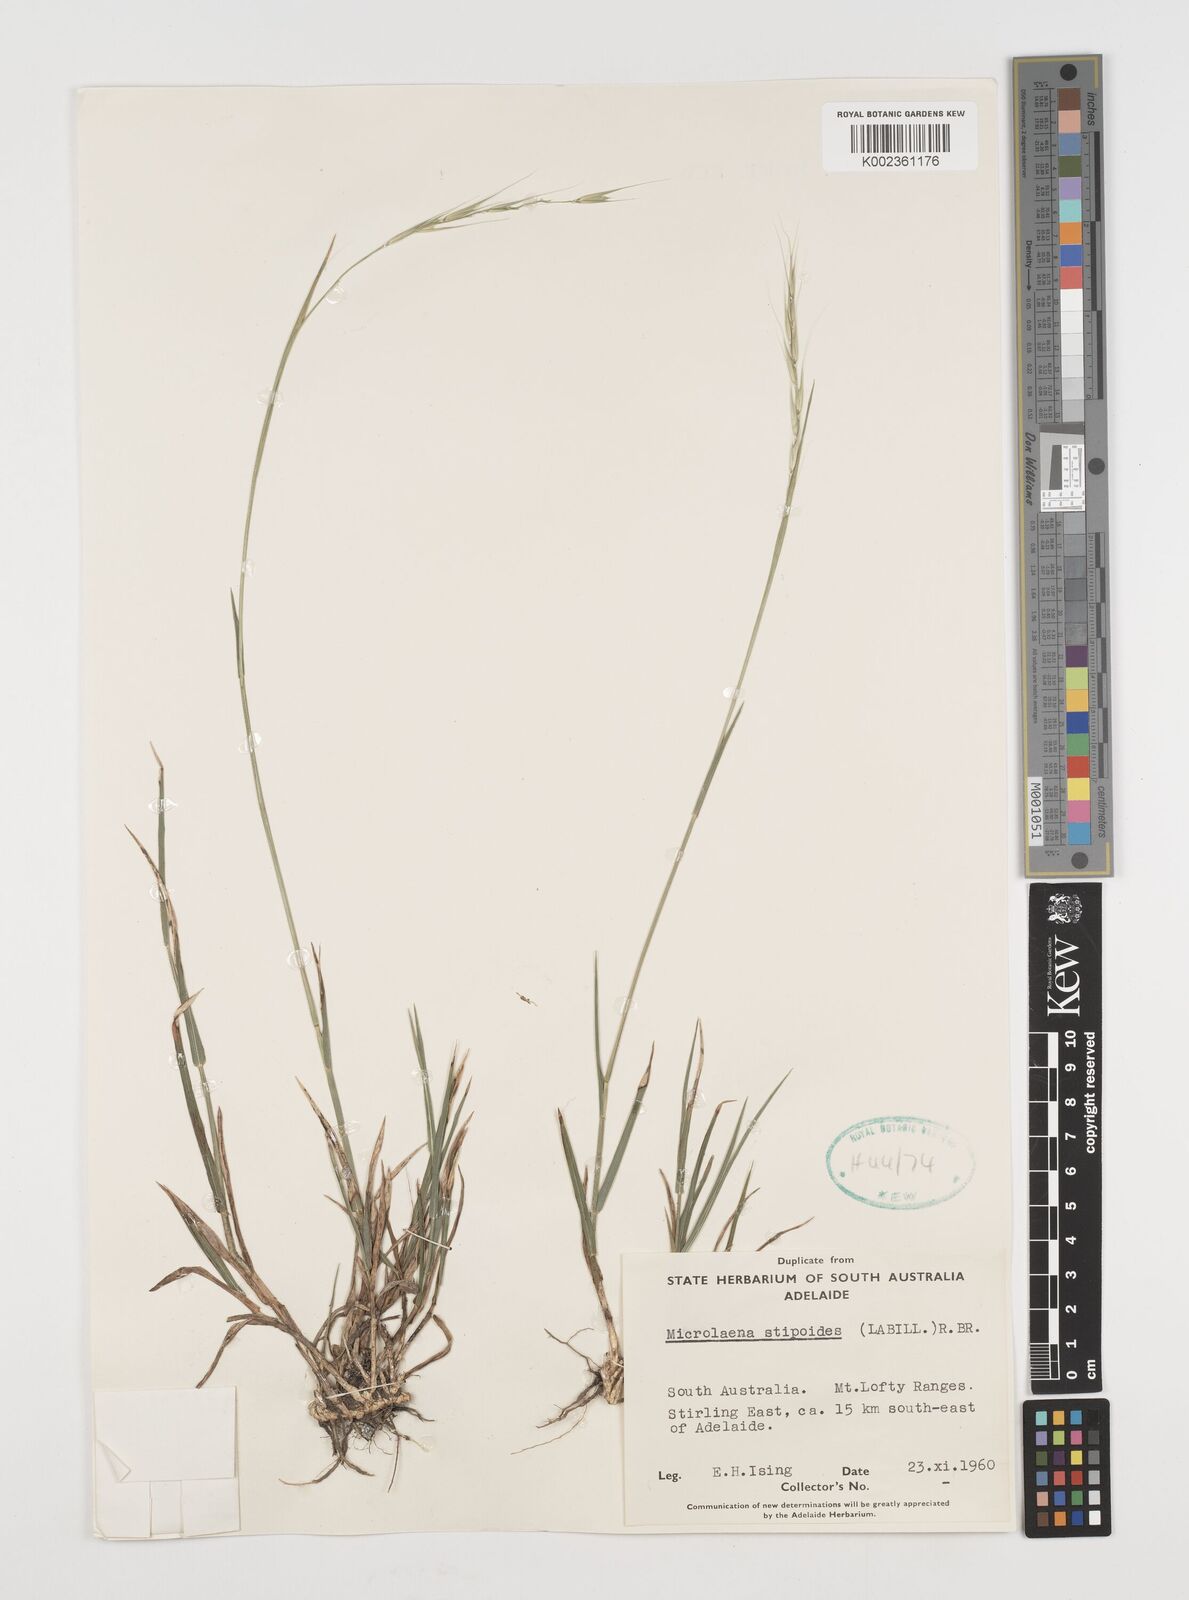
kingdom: Plantae
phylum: Tracheophyta
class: Liliopsida
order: Poales
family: Poaceae
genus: Microlaena
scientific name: Microlaena stipoides
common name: Meadow ricegrass
